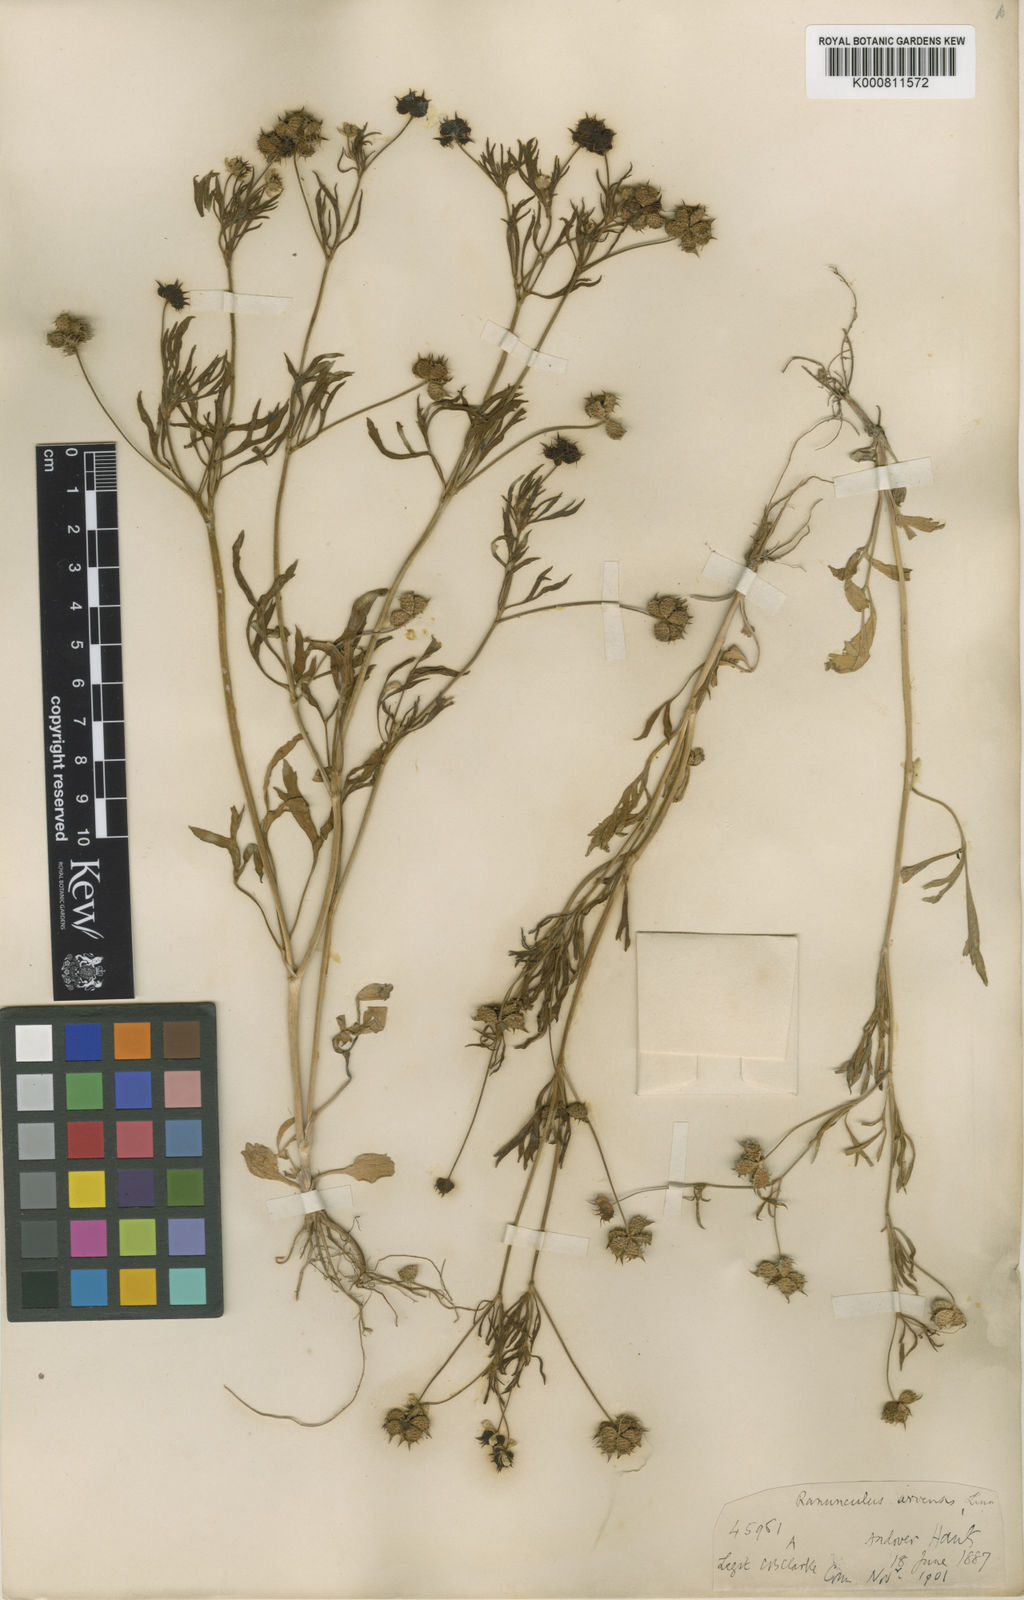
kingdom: Plantae
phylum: Tracheophyta
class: Magnoliopsida
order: Ranunculales
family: Ranunculaceae
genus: Ranunculus
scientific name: Ranunculus arvensis
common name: Corn buttercup
